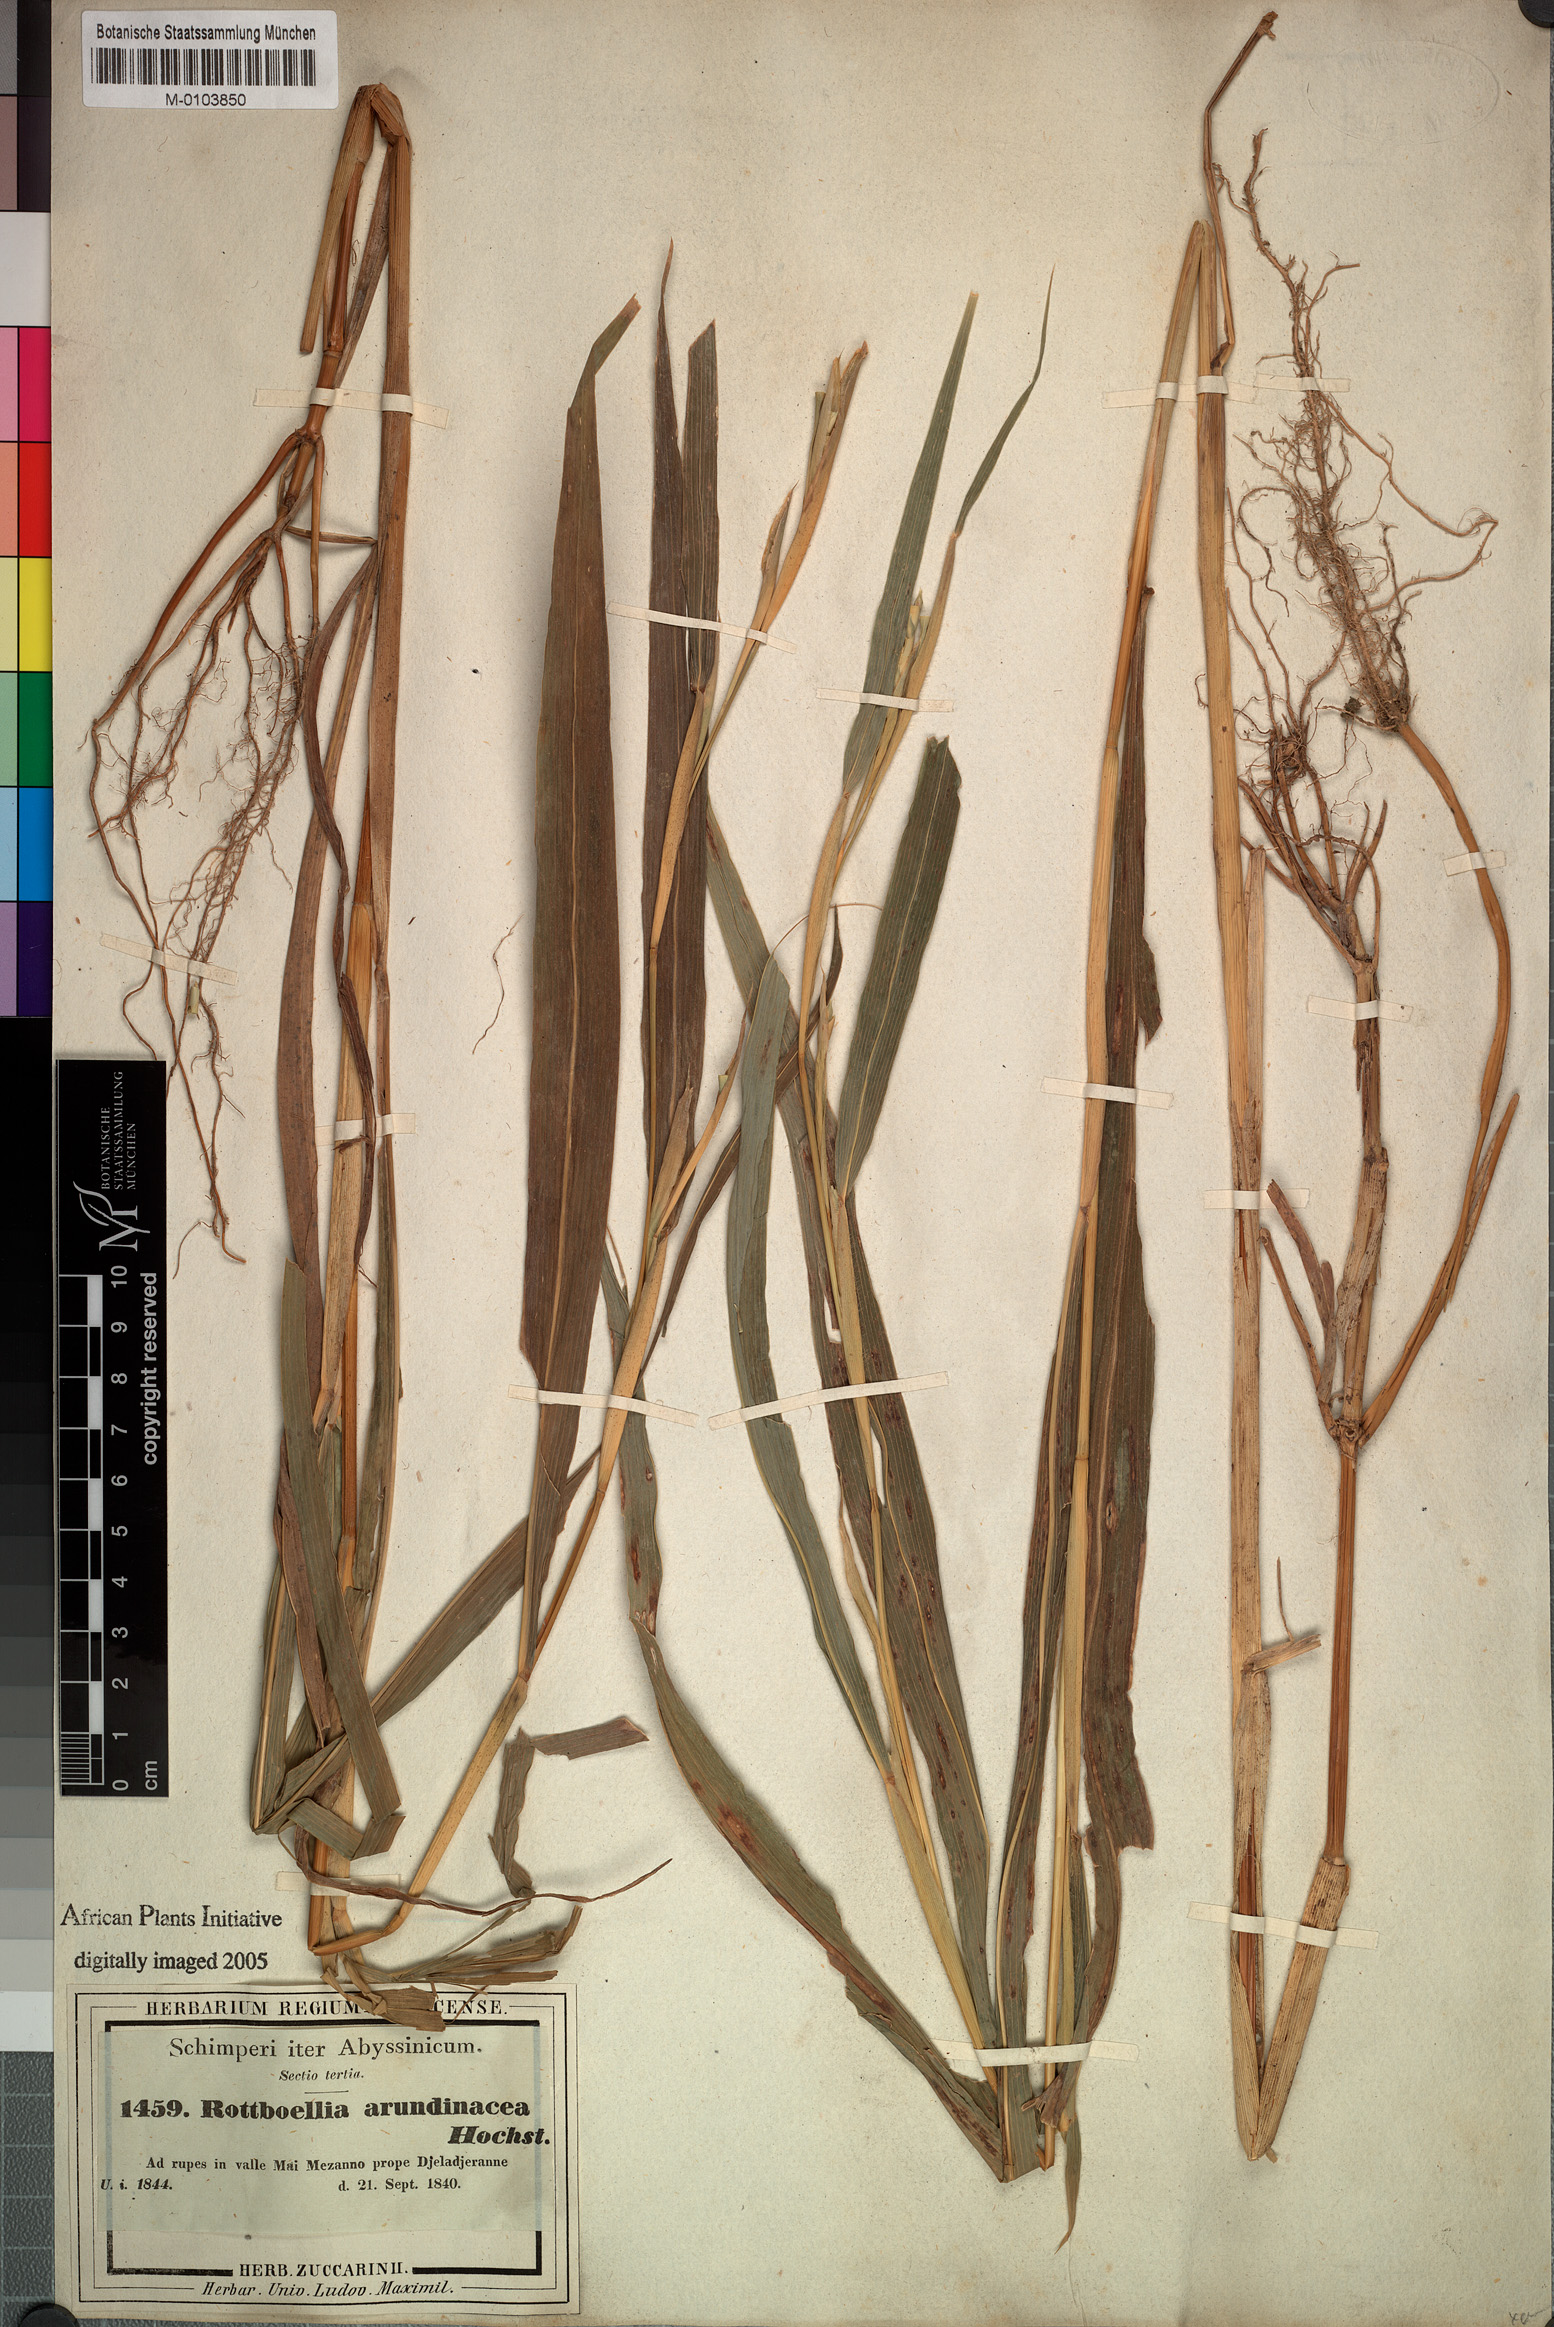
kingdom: Plantae
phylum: Tracheophyta
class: Liliopsida
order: Poales
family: Poaceae
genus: Rottboellia
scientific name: Rottboellia cochinchinensis
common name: Itchgrass
